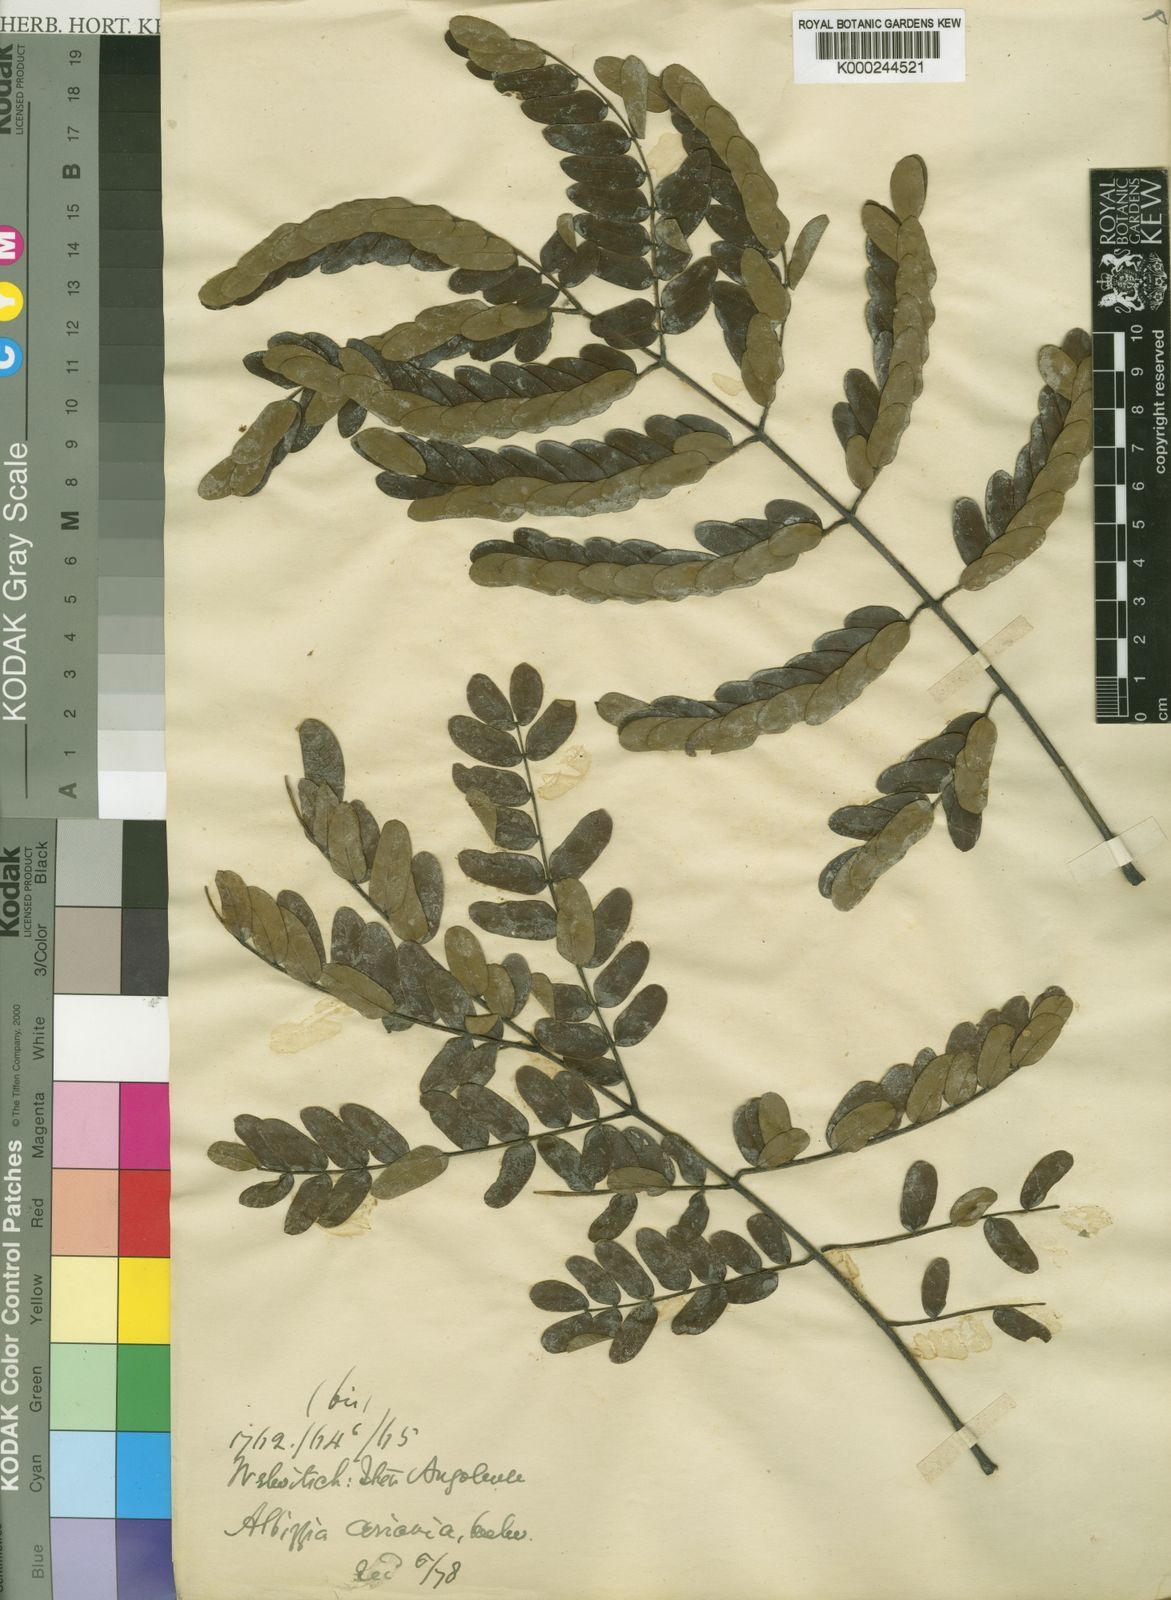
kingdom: Plantae
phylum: Tracheophyta
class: Magnoliopsida
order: Fabales
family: Fabaceae
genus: Albizia
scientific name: Albizia coriaria
